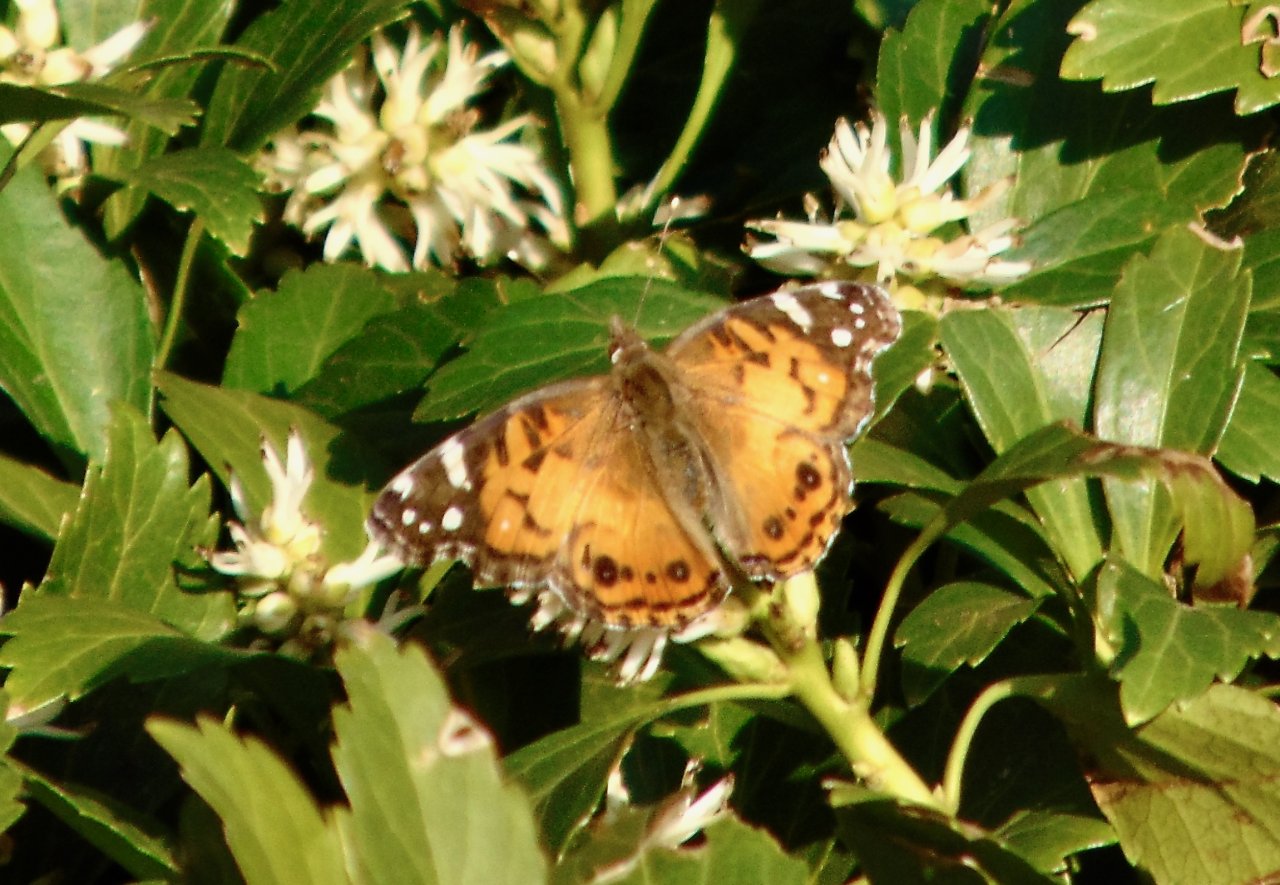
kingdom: Animalia
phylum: Arthropoda
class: Insecta
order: Lepidoptera
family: Nymphalidae
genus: Vanessa
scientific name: Vanessa virginiensis
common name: American Lady
